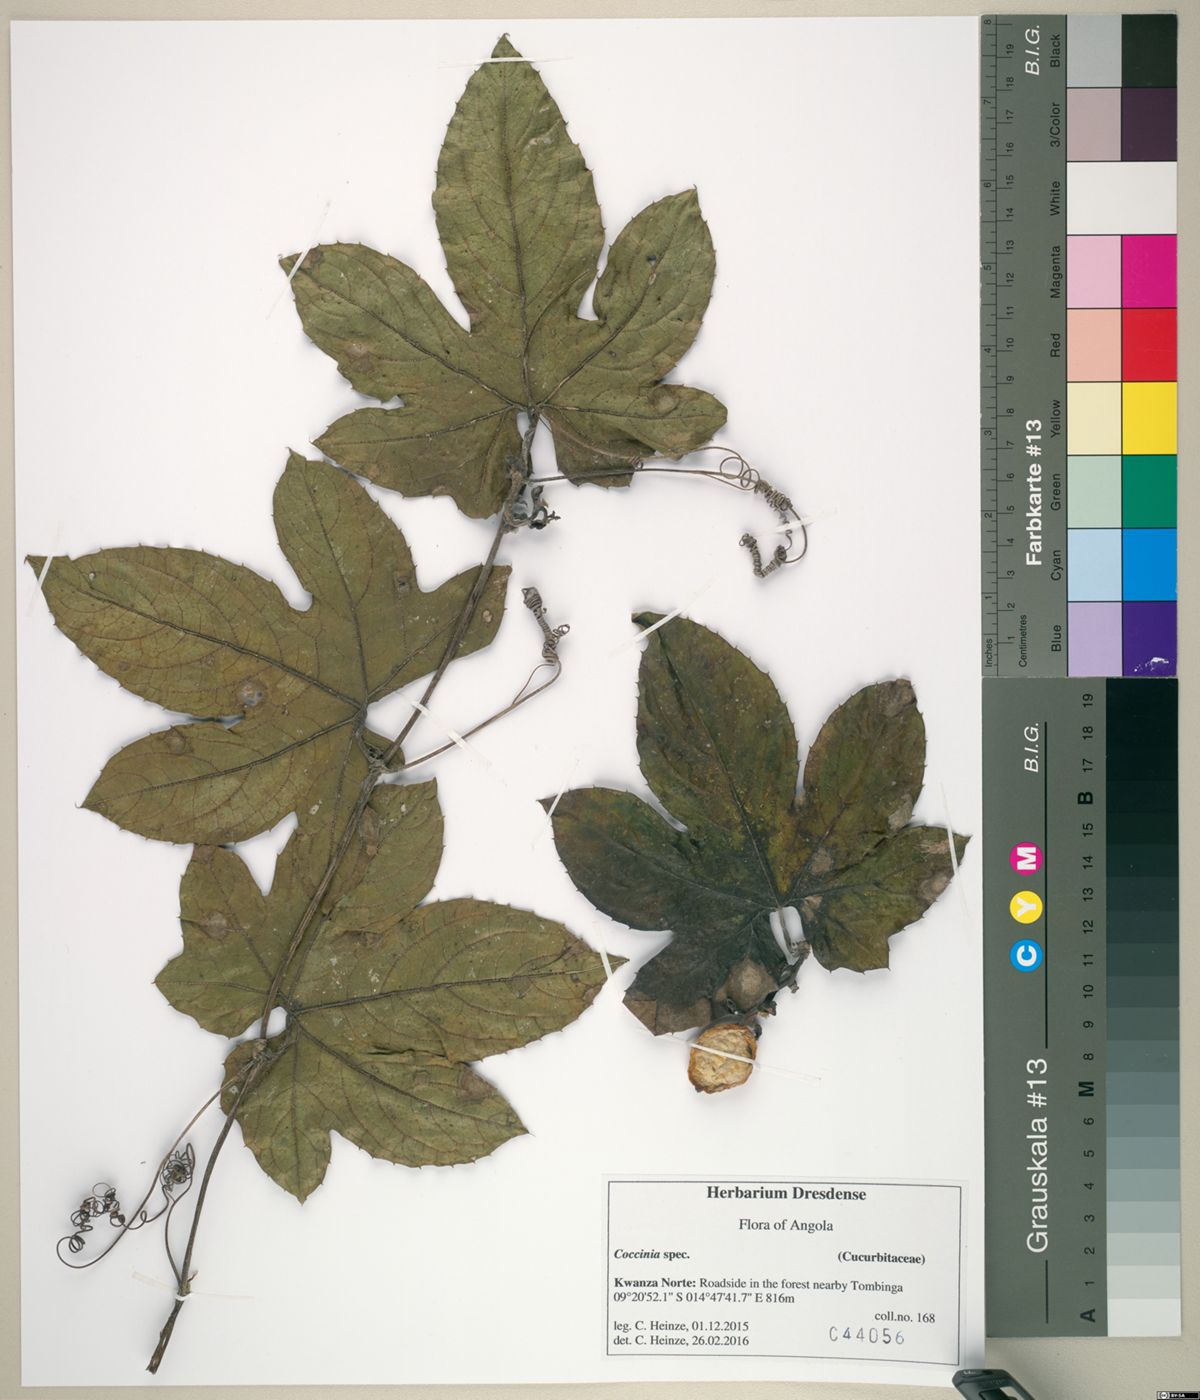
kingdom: Plantae
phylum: Tracheophyta
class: Magnoliopsida
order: Cucurbitales
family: Cucurbitaceae
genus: Coccinia
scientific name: Coccinia barteri
